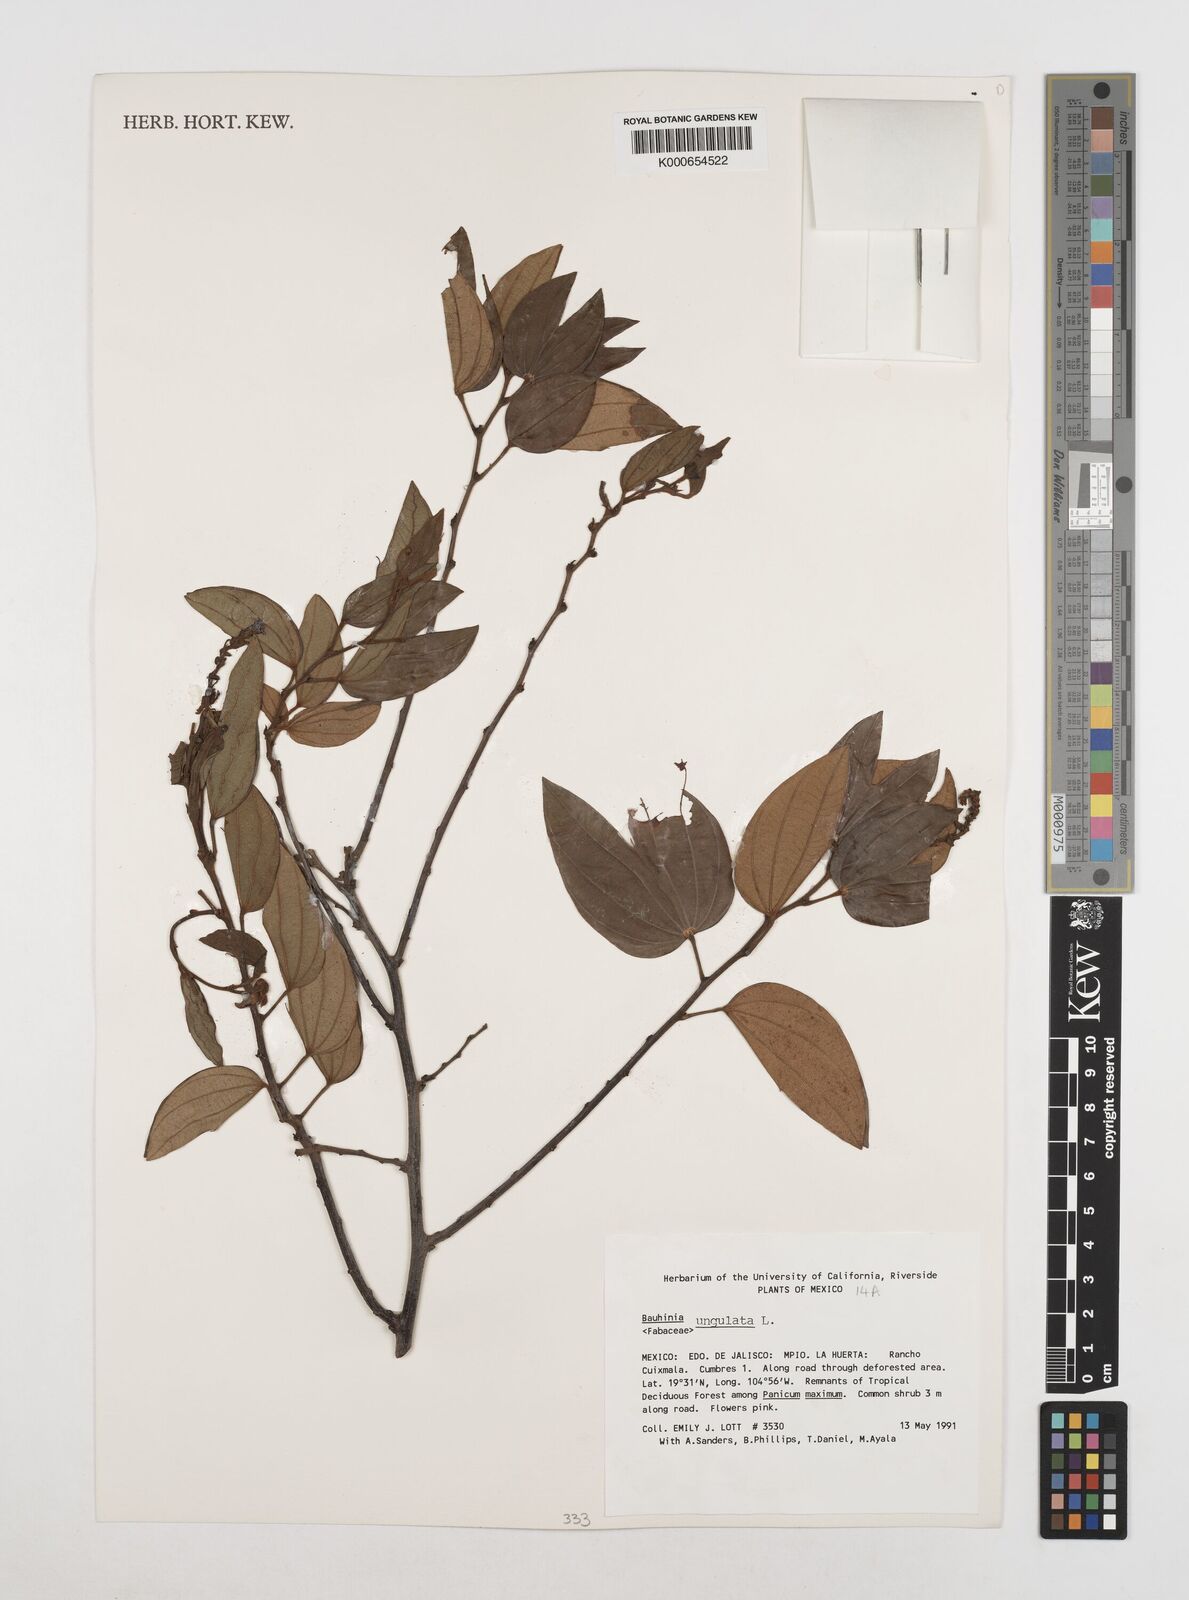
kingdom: Plantae
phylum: Tracheophyta
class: Magnoliopsida
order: Fabales
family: Fabaceae
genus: Bauhinia
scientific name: Bauhinia ungulata
